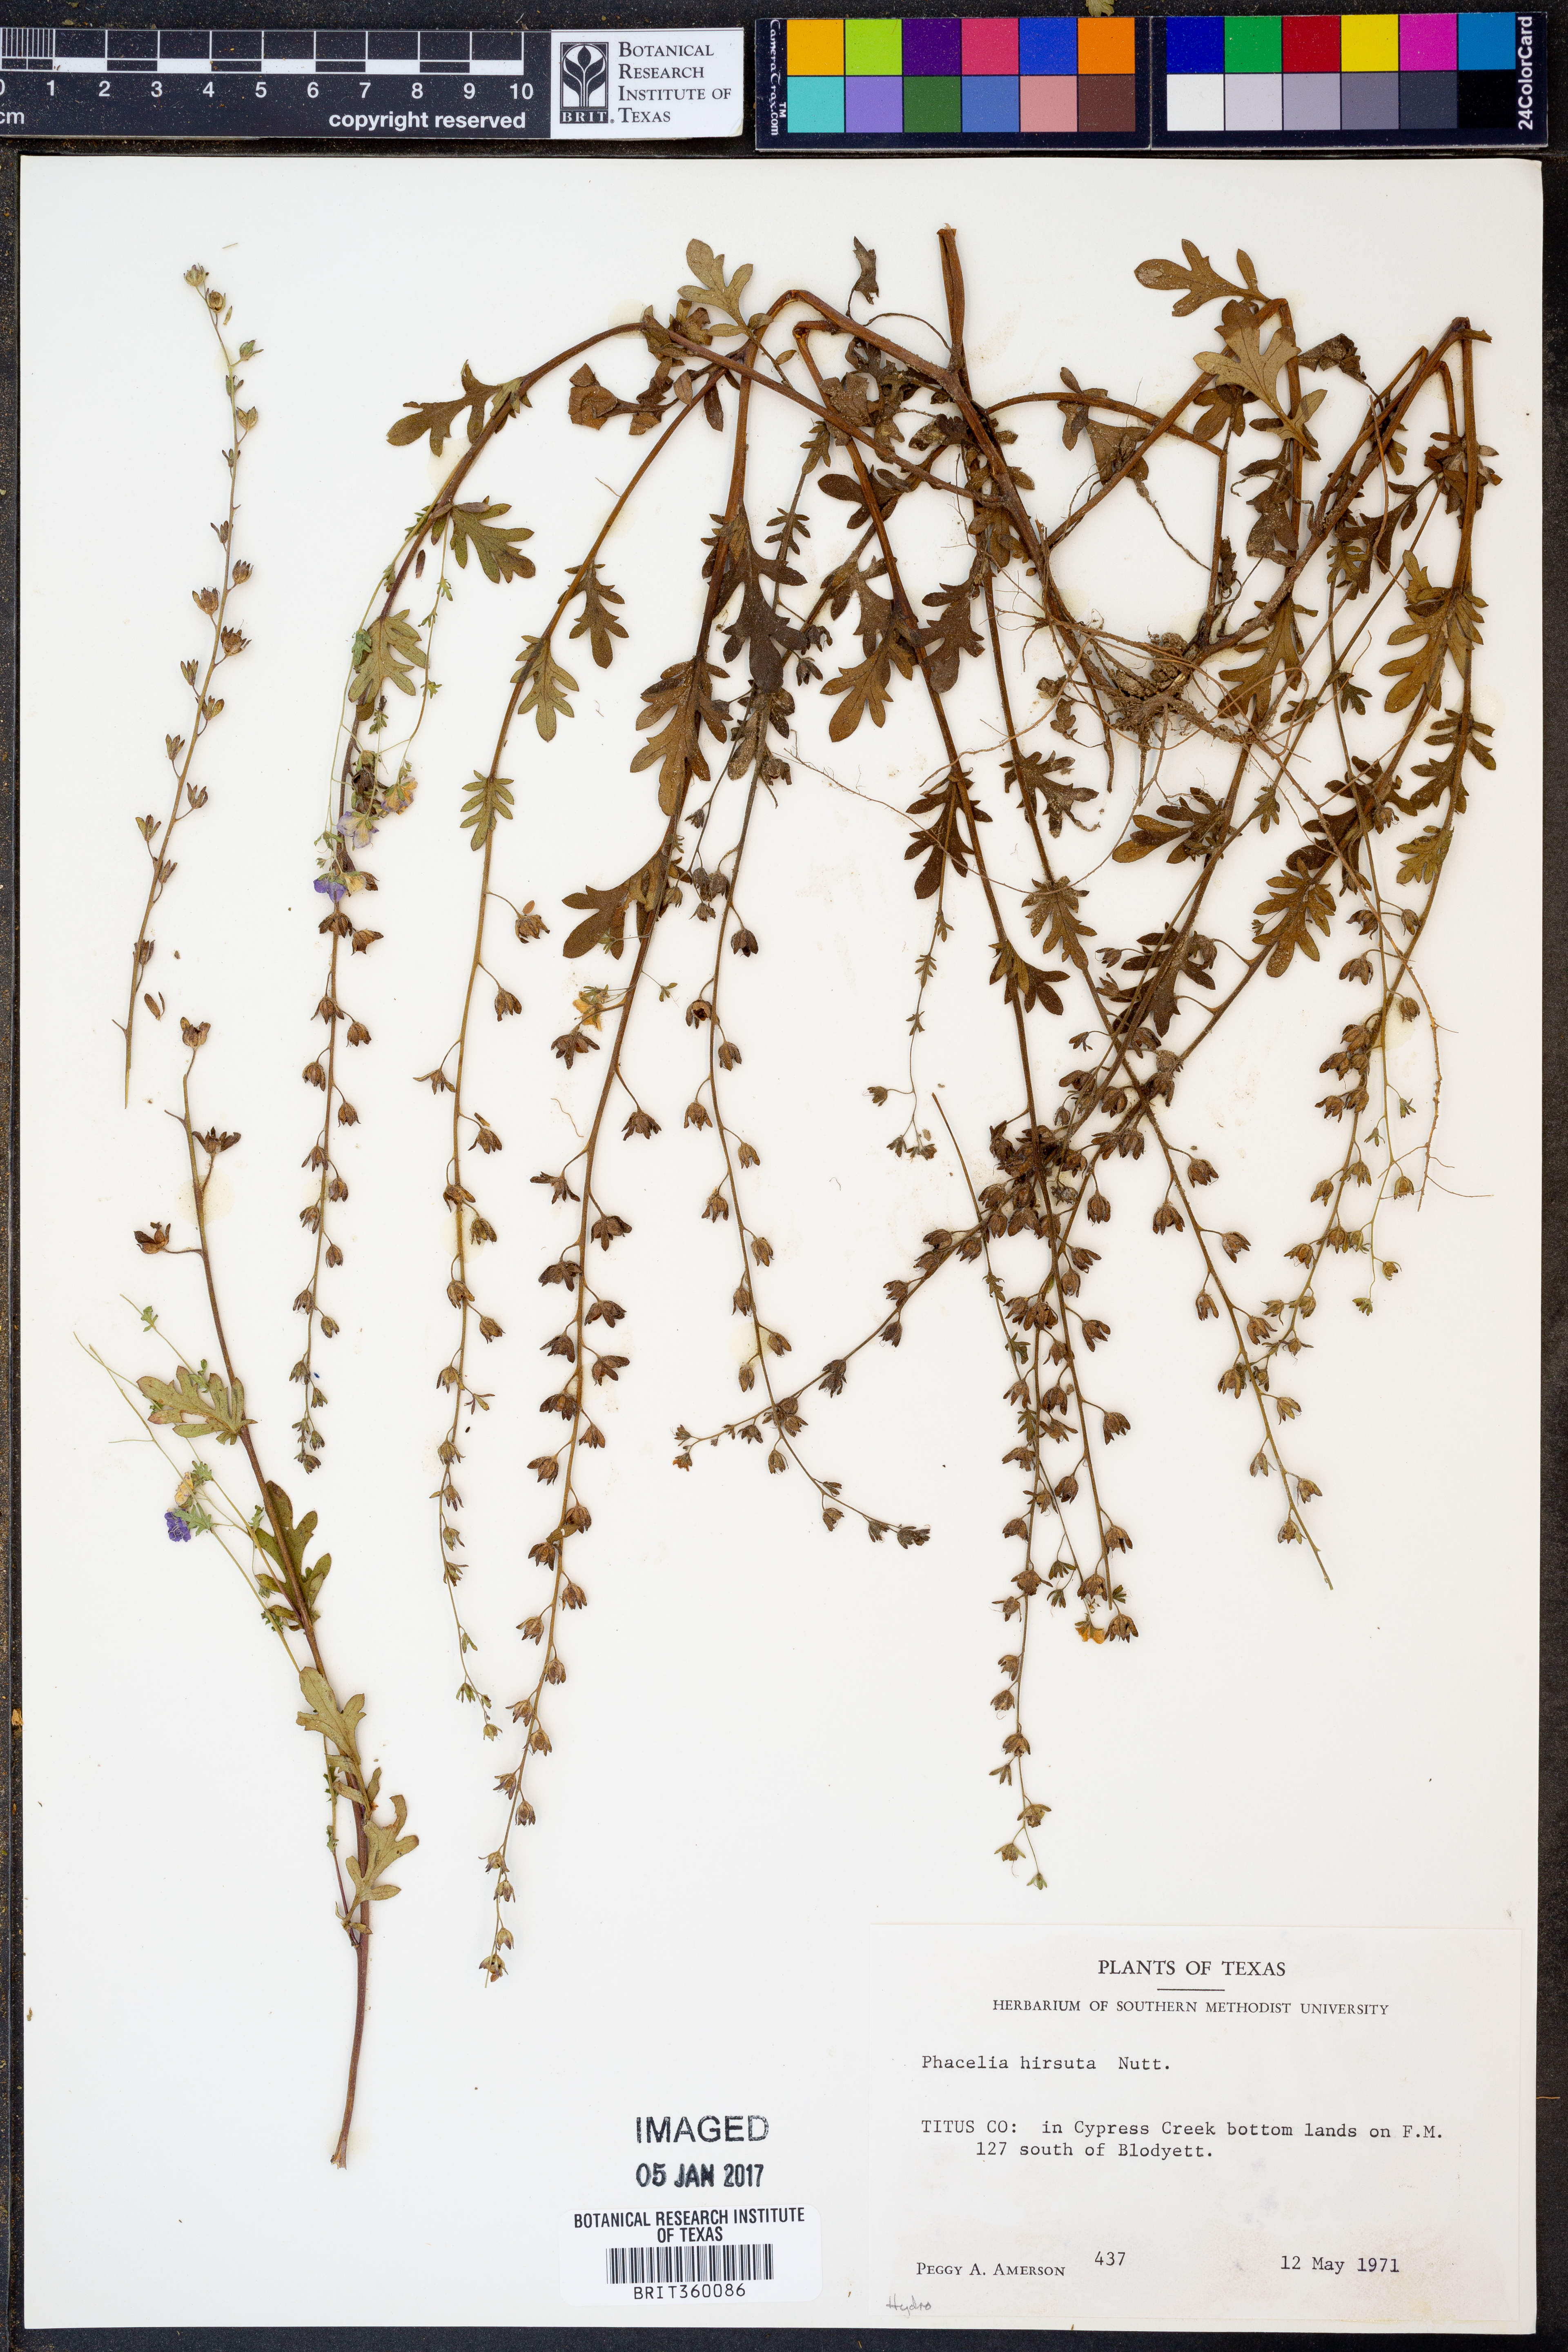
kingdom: Plantae
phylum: Tracheophyta
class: Magnoliopsida
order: Boraginales
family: Hydrophyllaceae
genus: Phacelia
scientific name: Phacelia hirsuta
